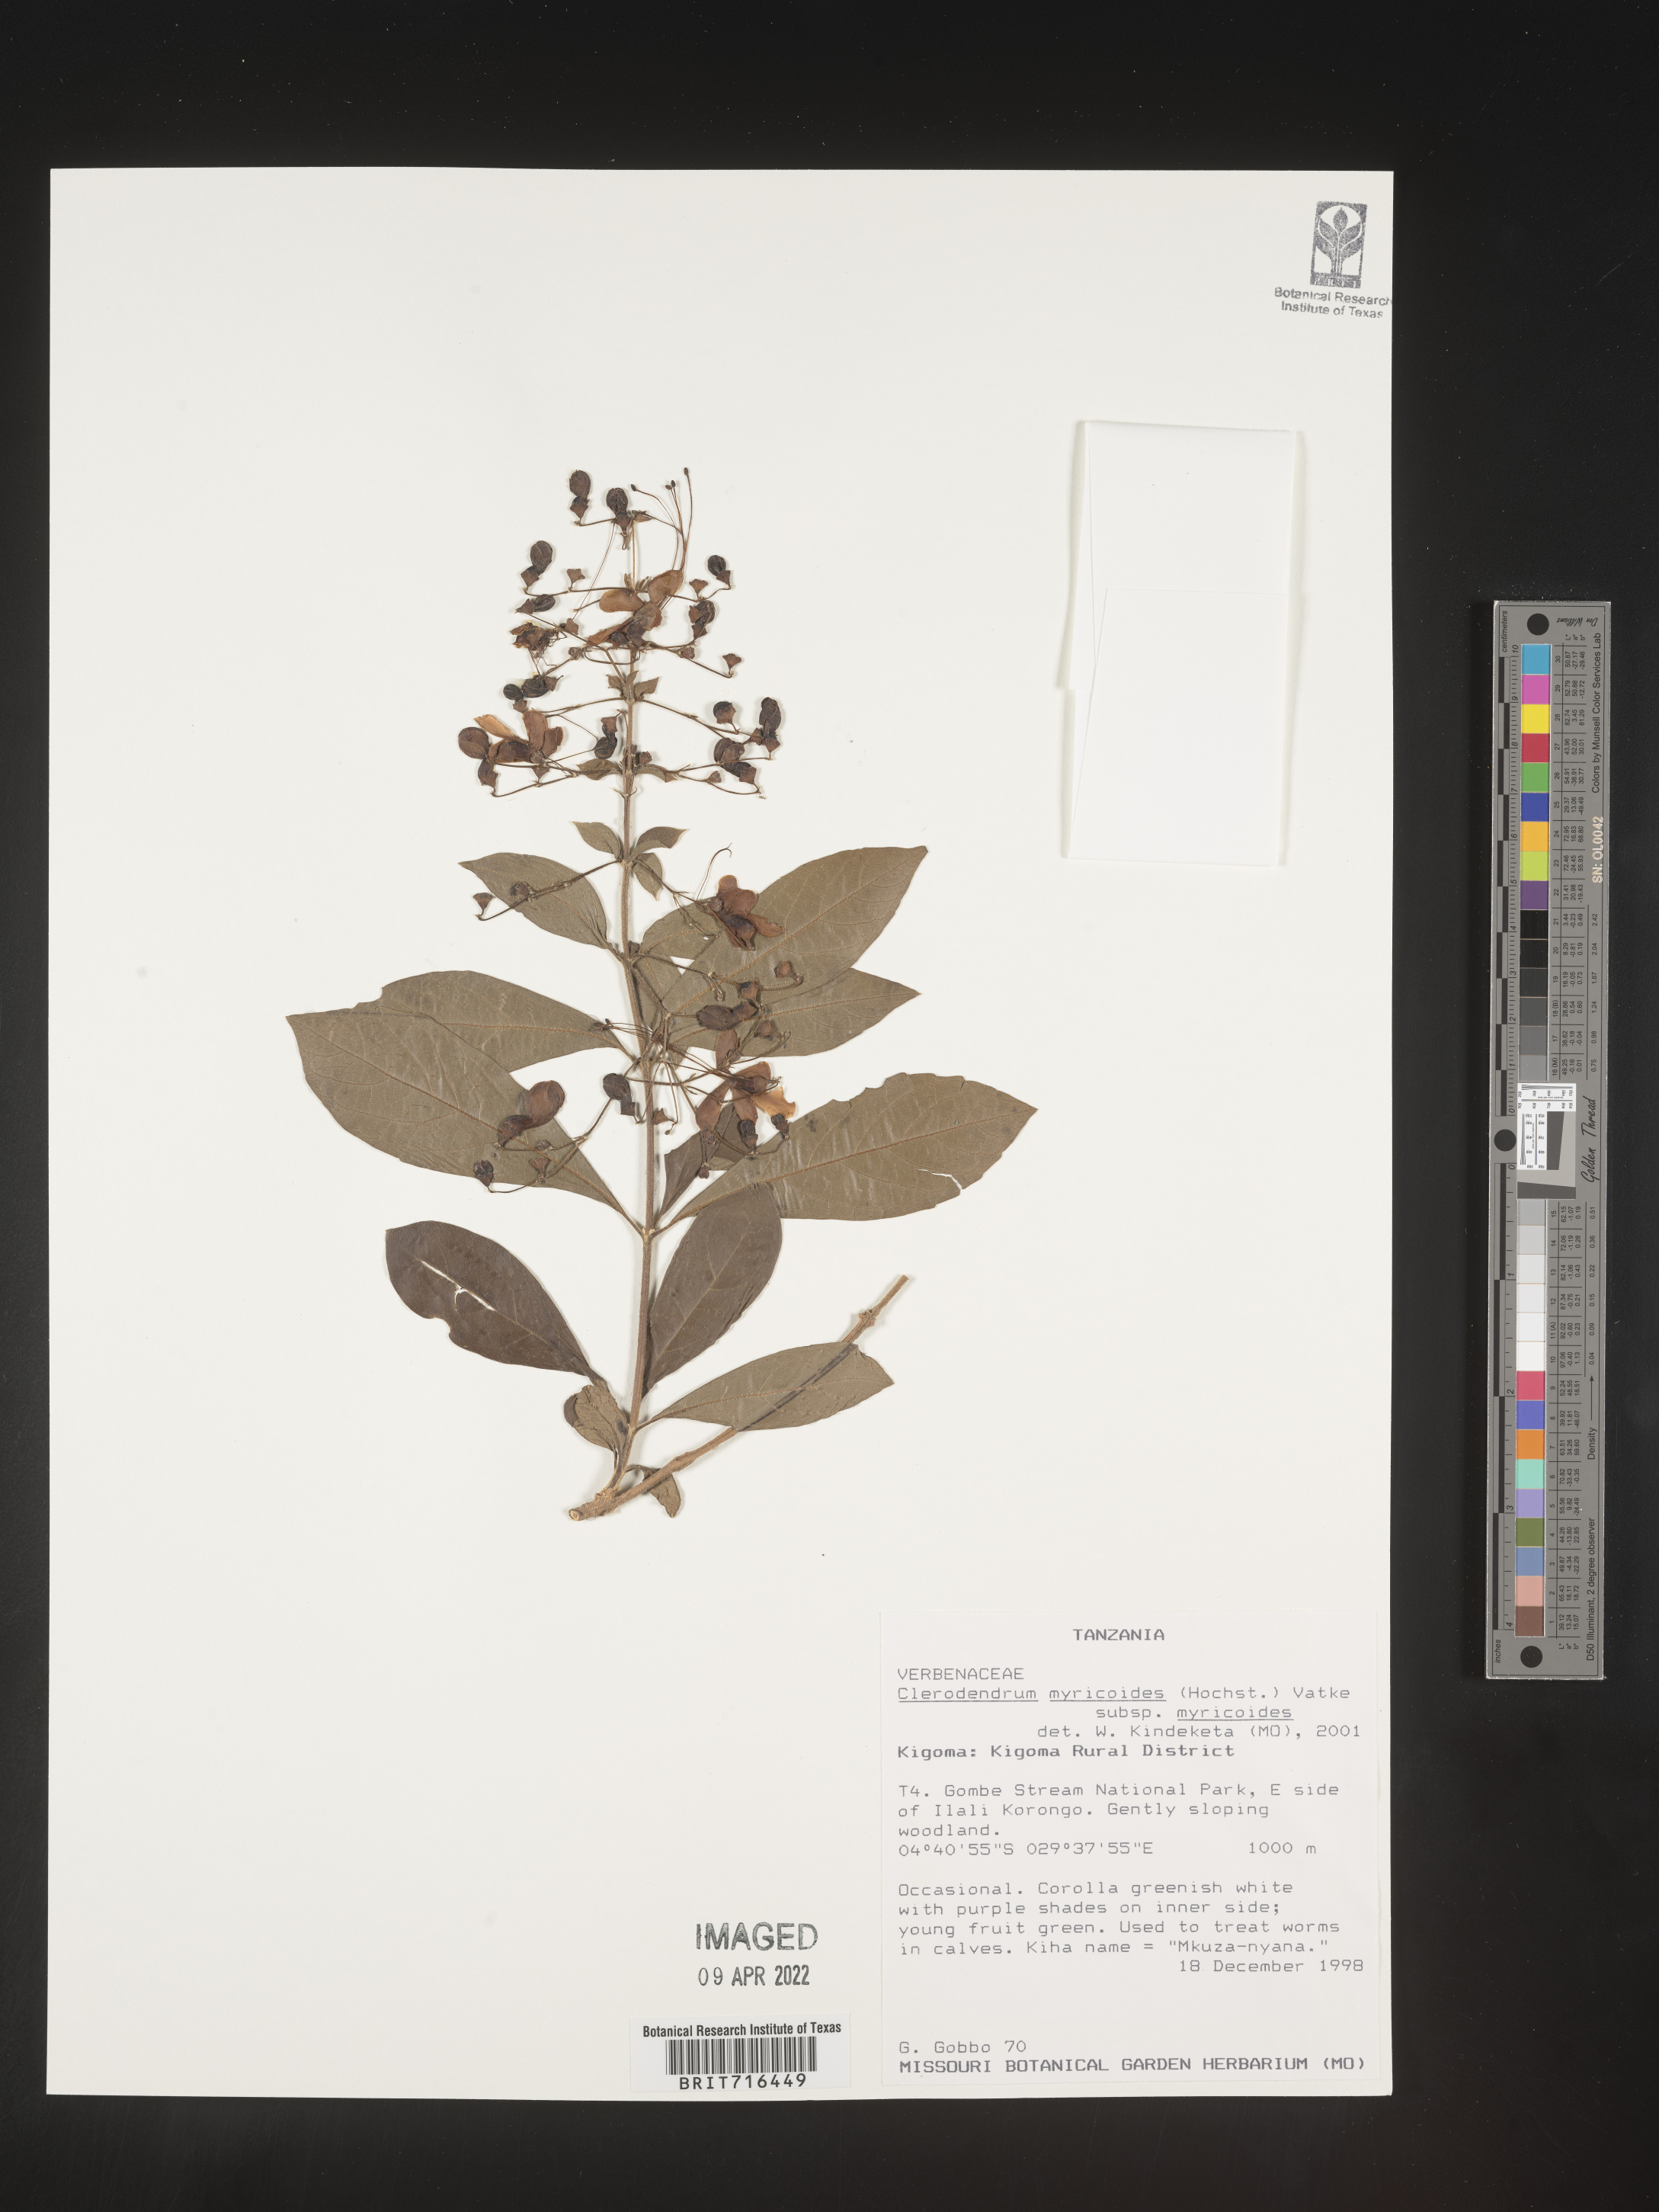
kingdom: Plantae
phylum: Tracheophyta
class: Magnoliopsida
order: Lamiales
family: Lamiaceae
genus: Clerodendrum
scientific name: Clerodendrum
